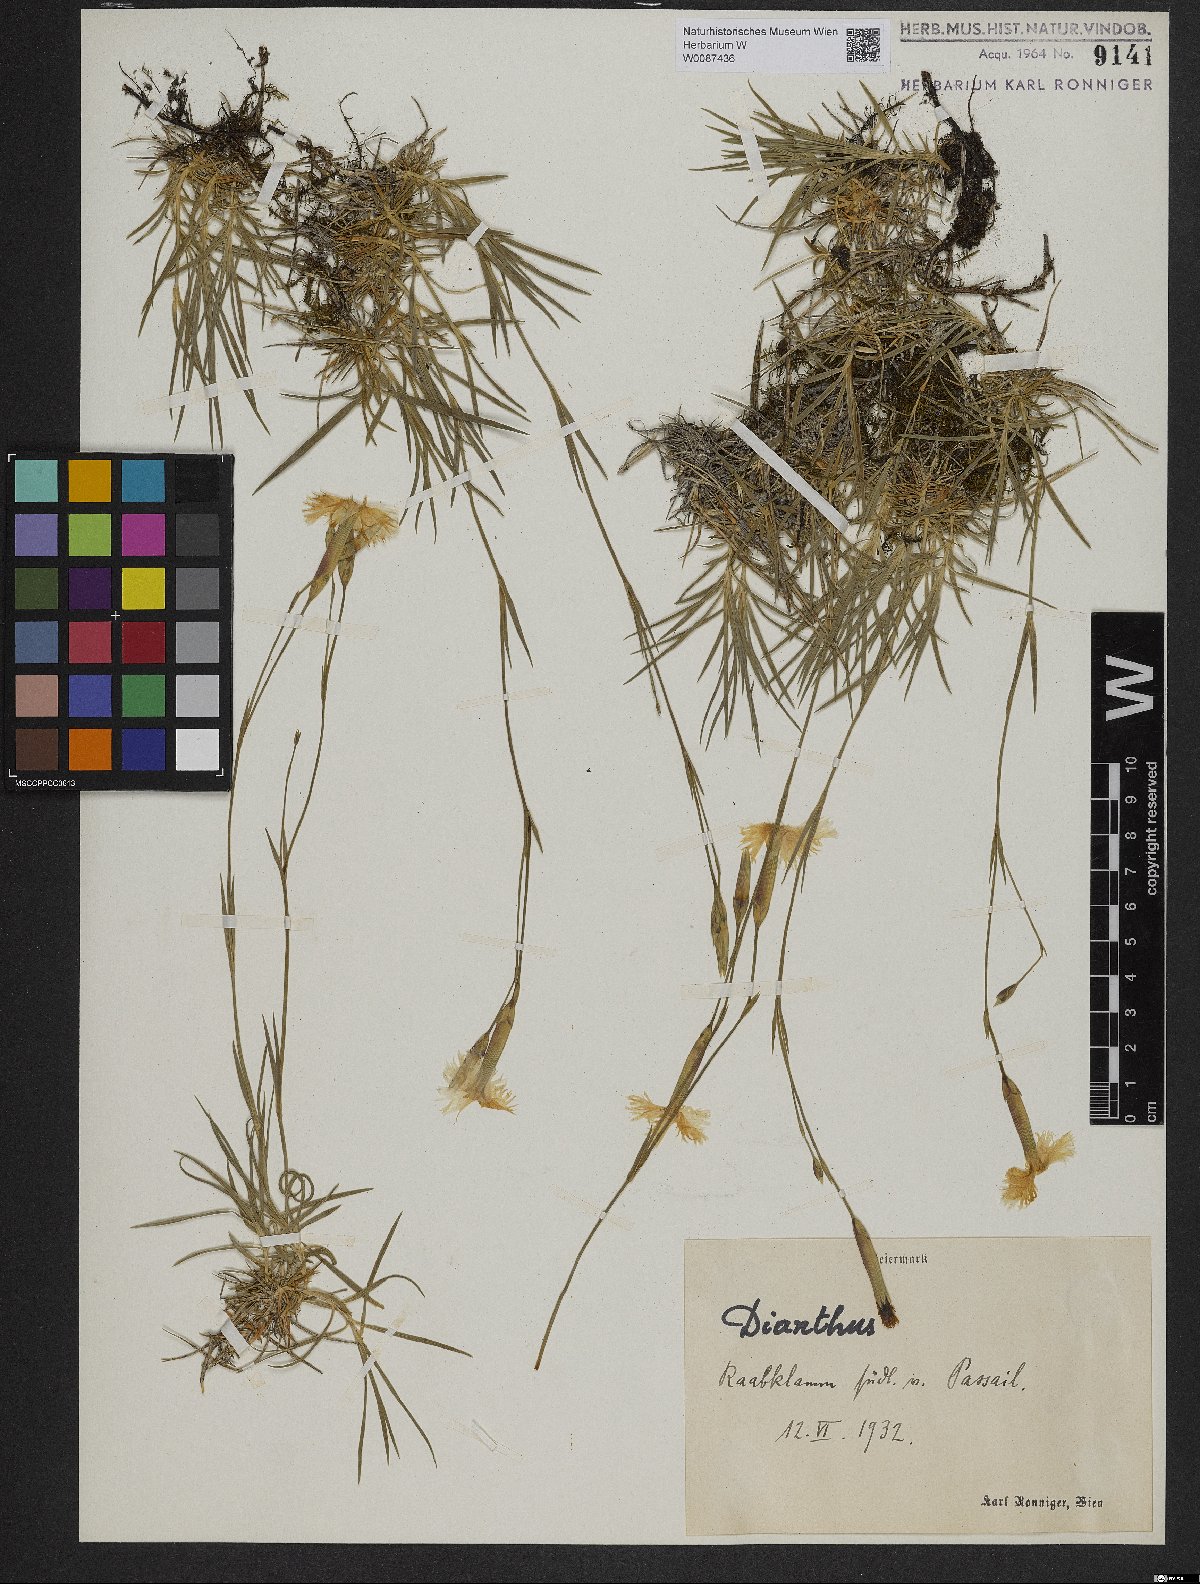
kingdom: Plantae
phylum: Tracheophyta
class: Magnoliopsida
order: Caryophyllales
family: Caryophyllaceae
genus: Dianthus
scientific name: Dianthus plumarius
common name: Pink
